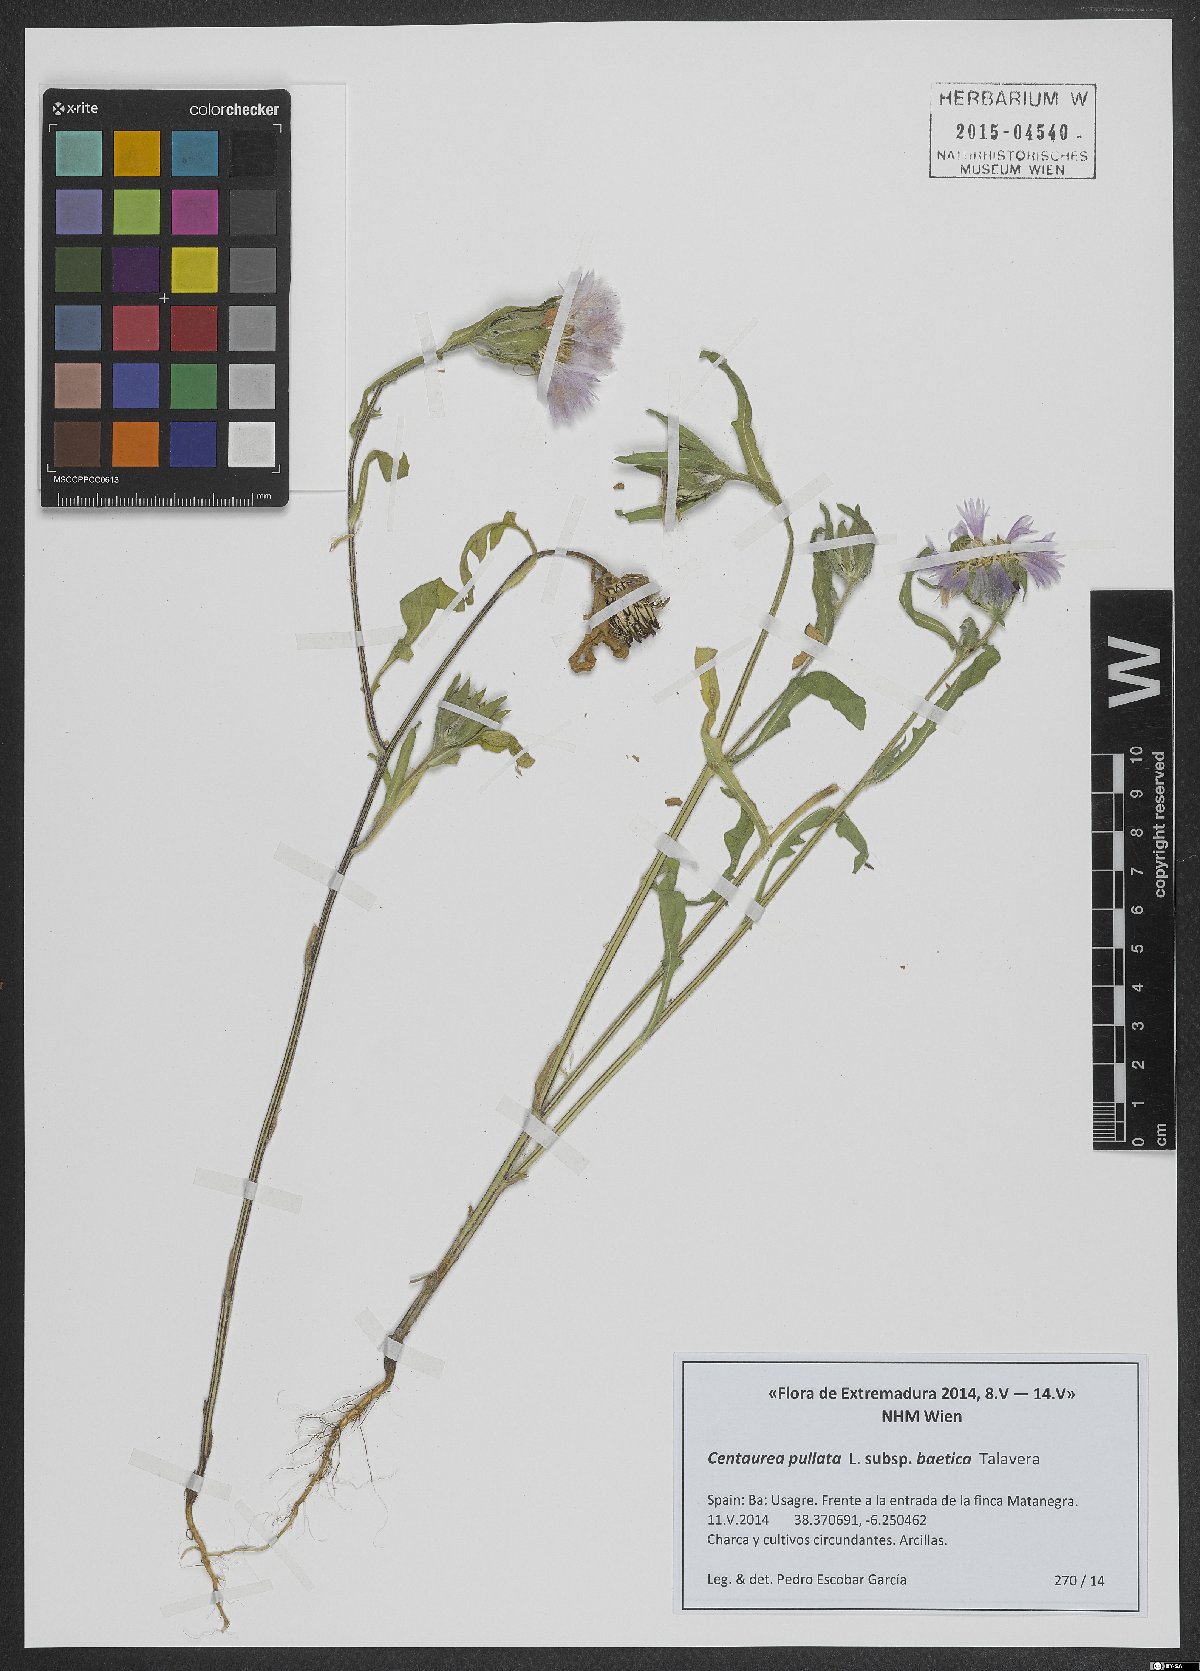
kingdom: Plantae
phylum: Tracheophyta
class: Magnoliopsida
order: Asterales
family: Asteraceae
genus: Centaurea
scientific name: Centaurea pullata
